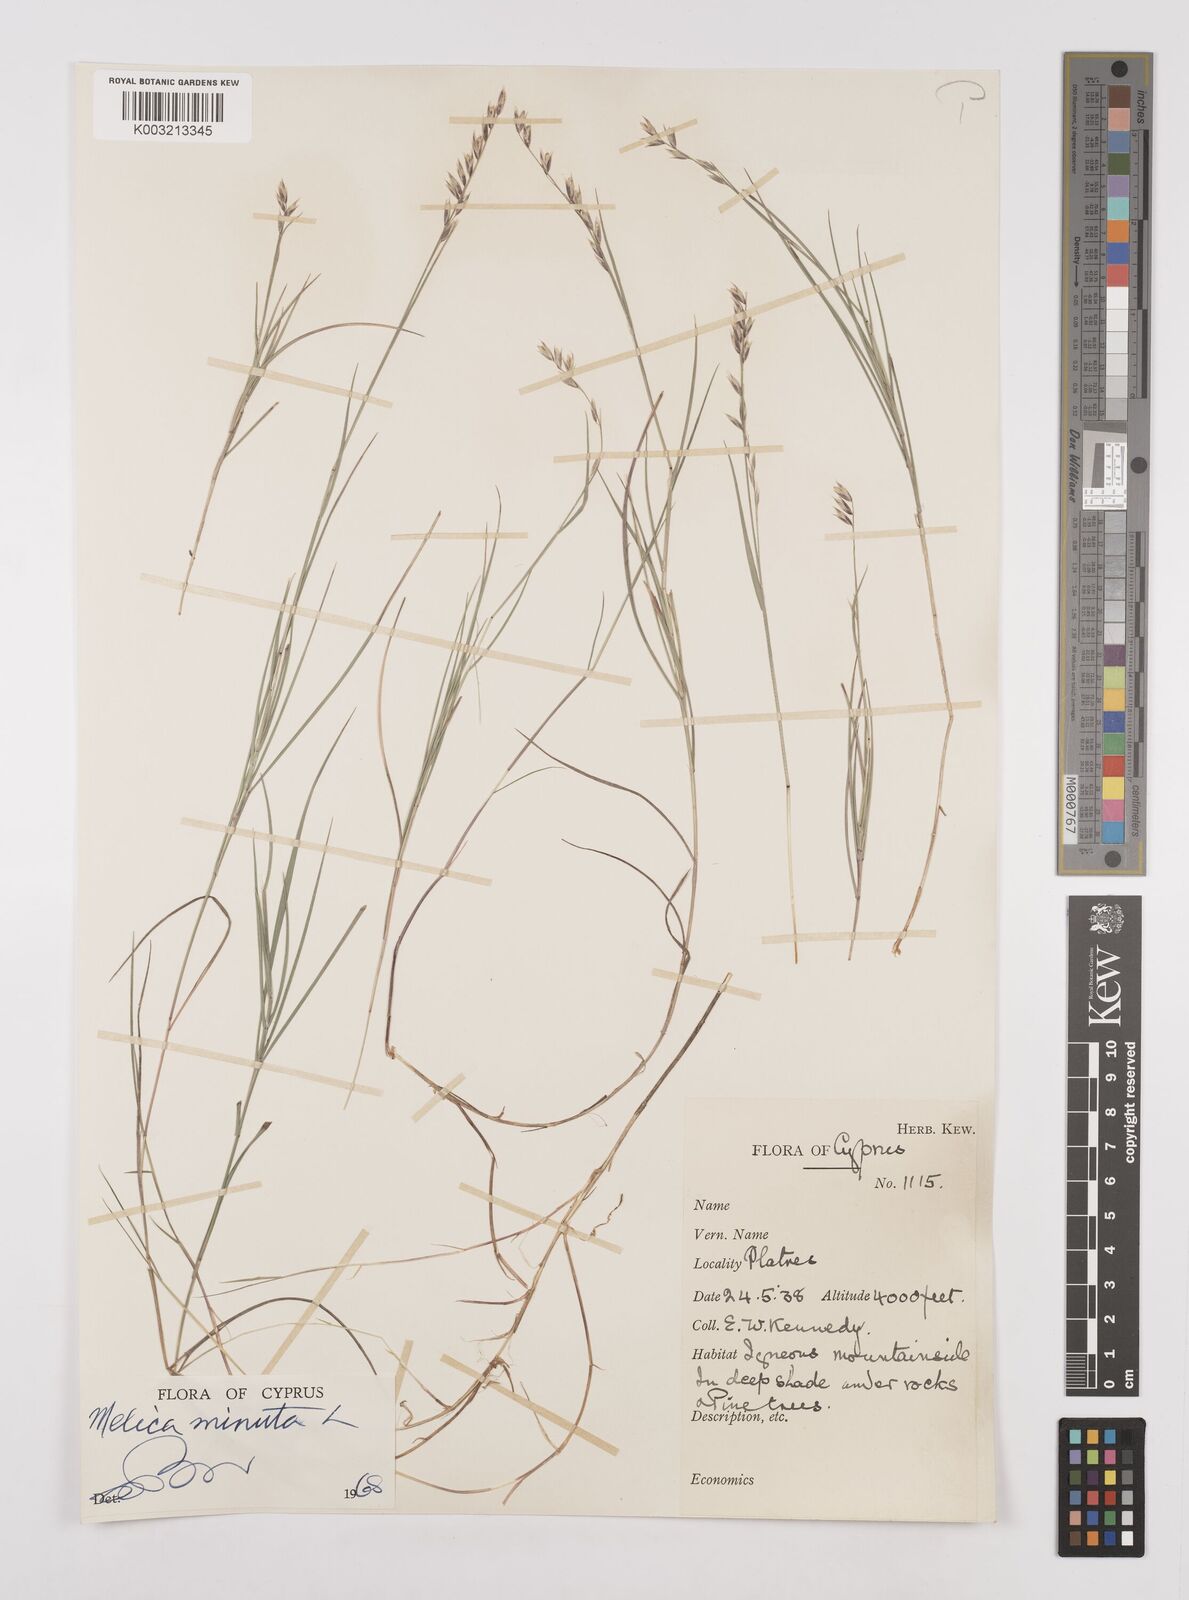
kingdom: Plantae
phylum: Tracheophyta
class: Liliopsida
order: Poales
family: Poaceae
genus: Melica
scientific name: Melica minuta
